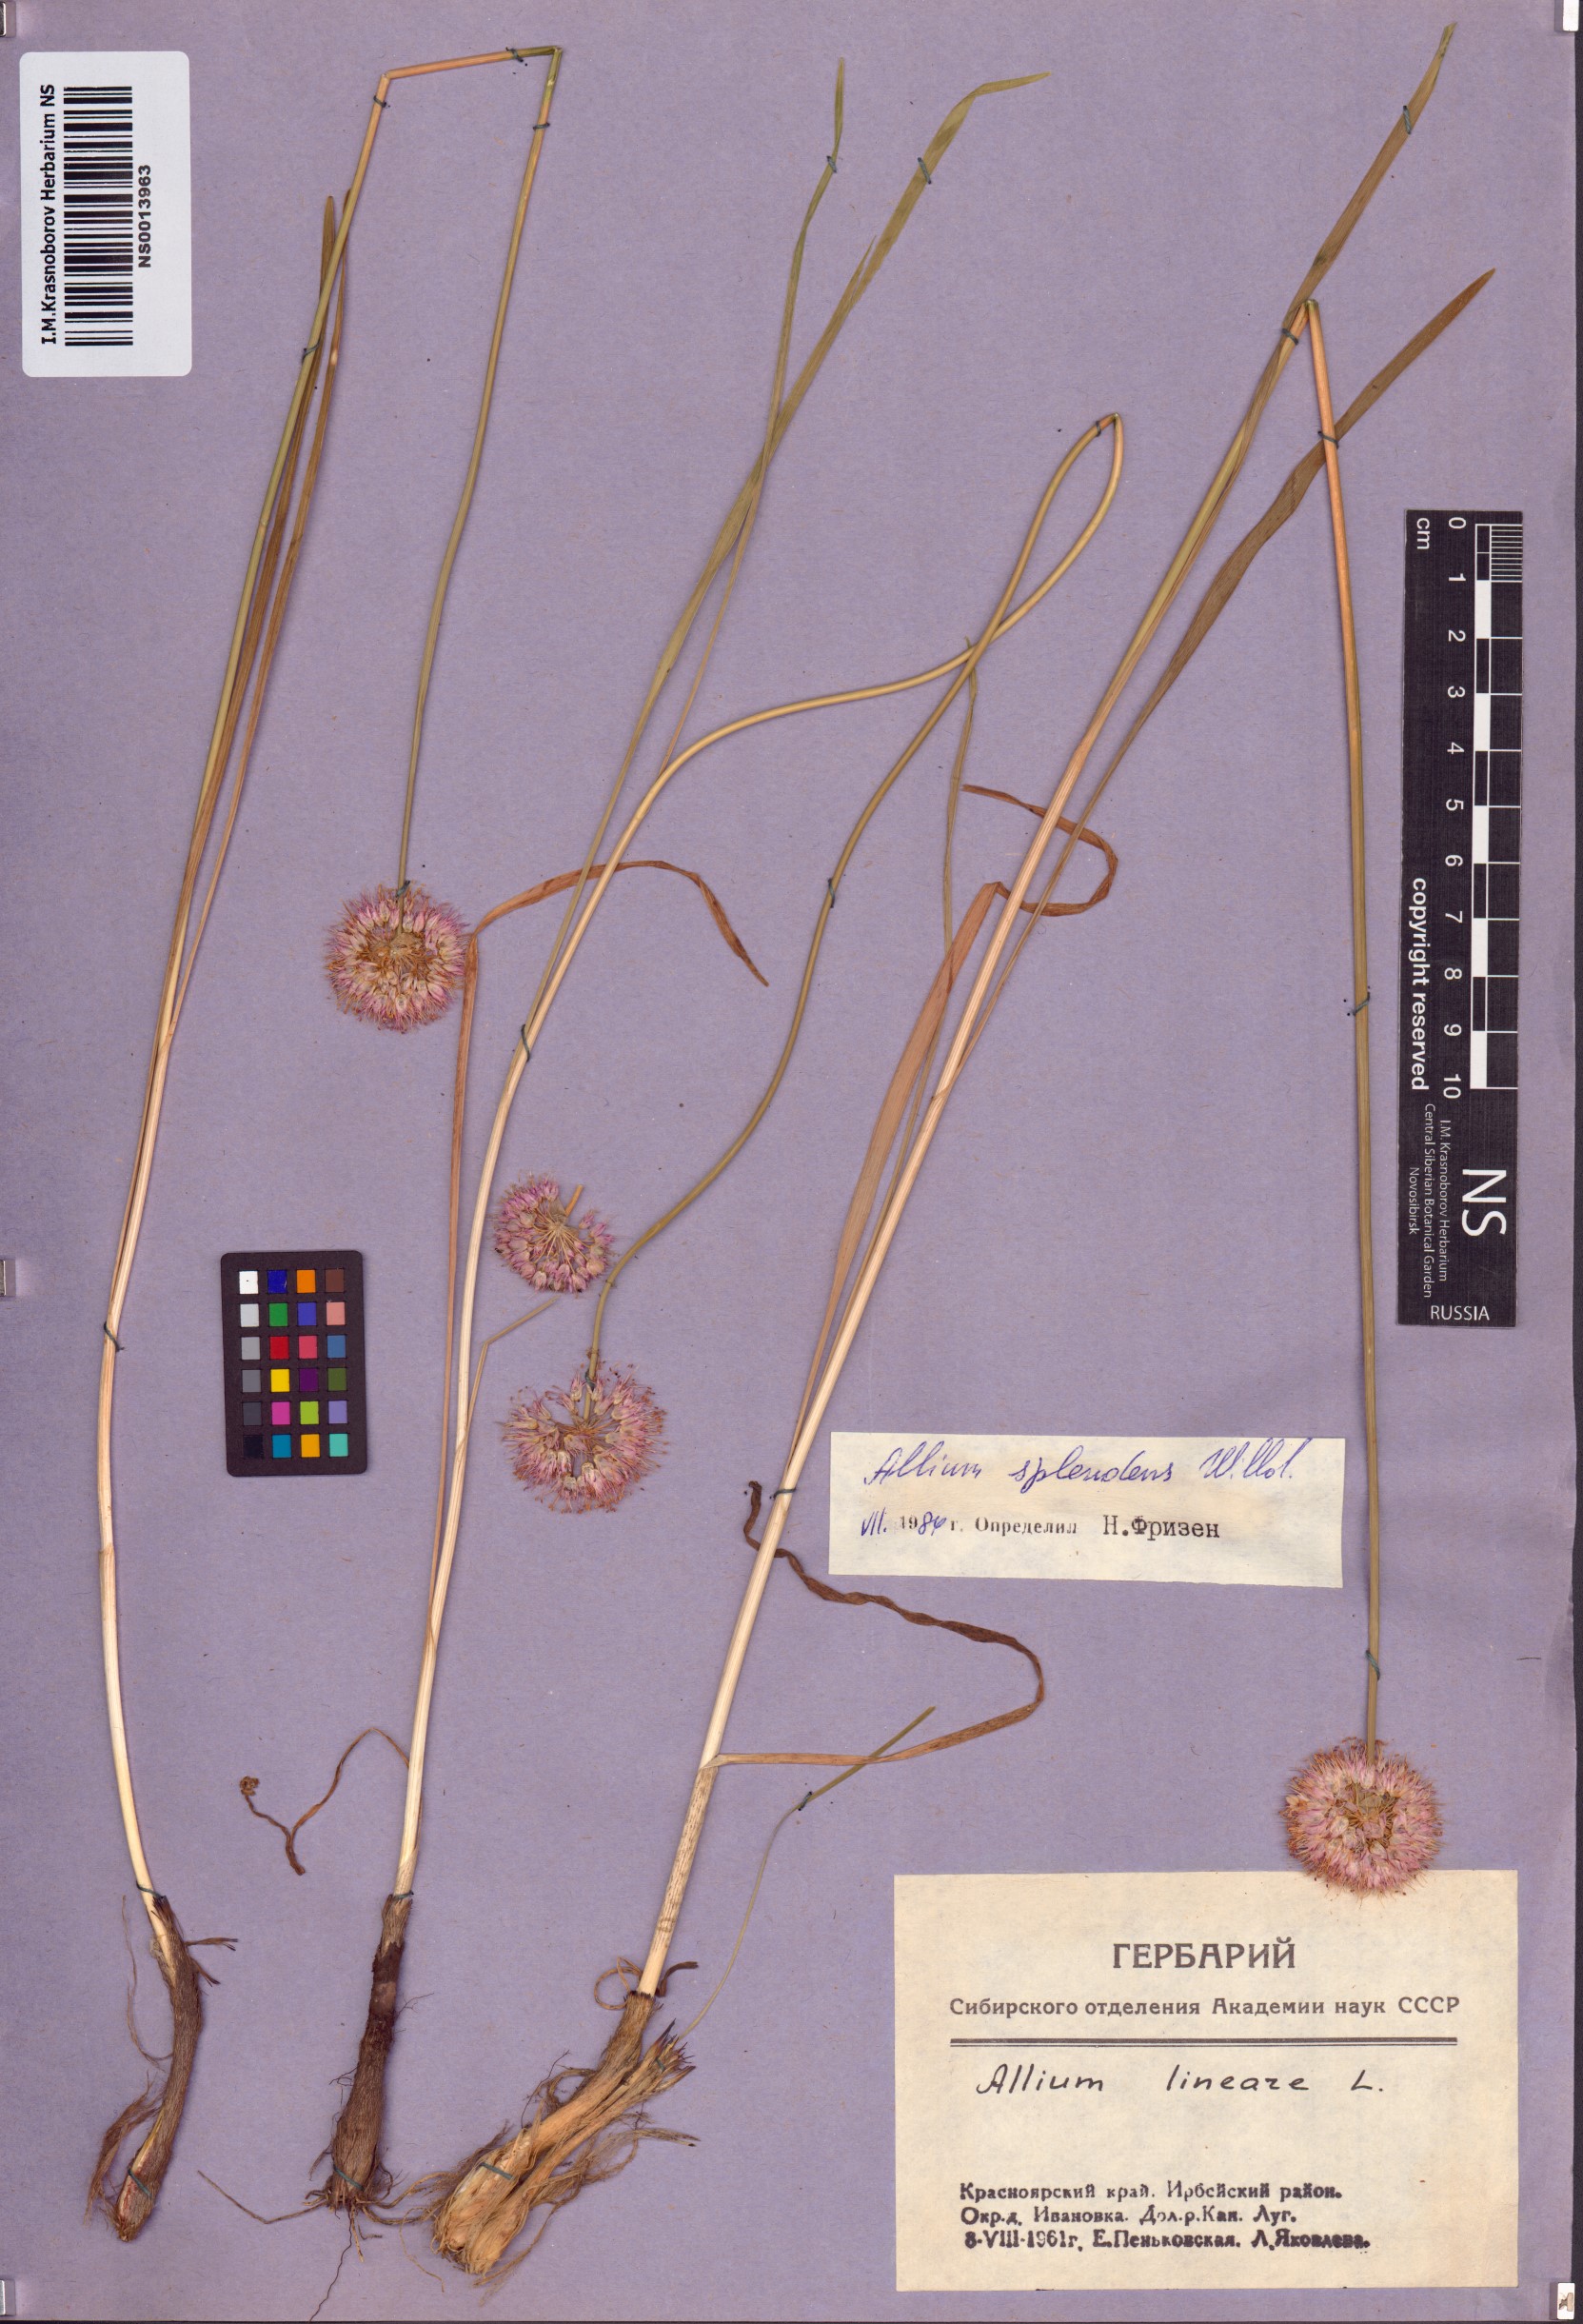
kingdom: Plantae
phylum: Tracheophyta
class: Liliopsida
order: Asparagales
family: Amaryllidaceae
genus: Allium
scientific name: Allium splendens
